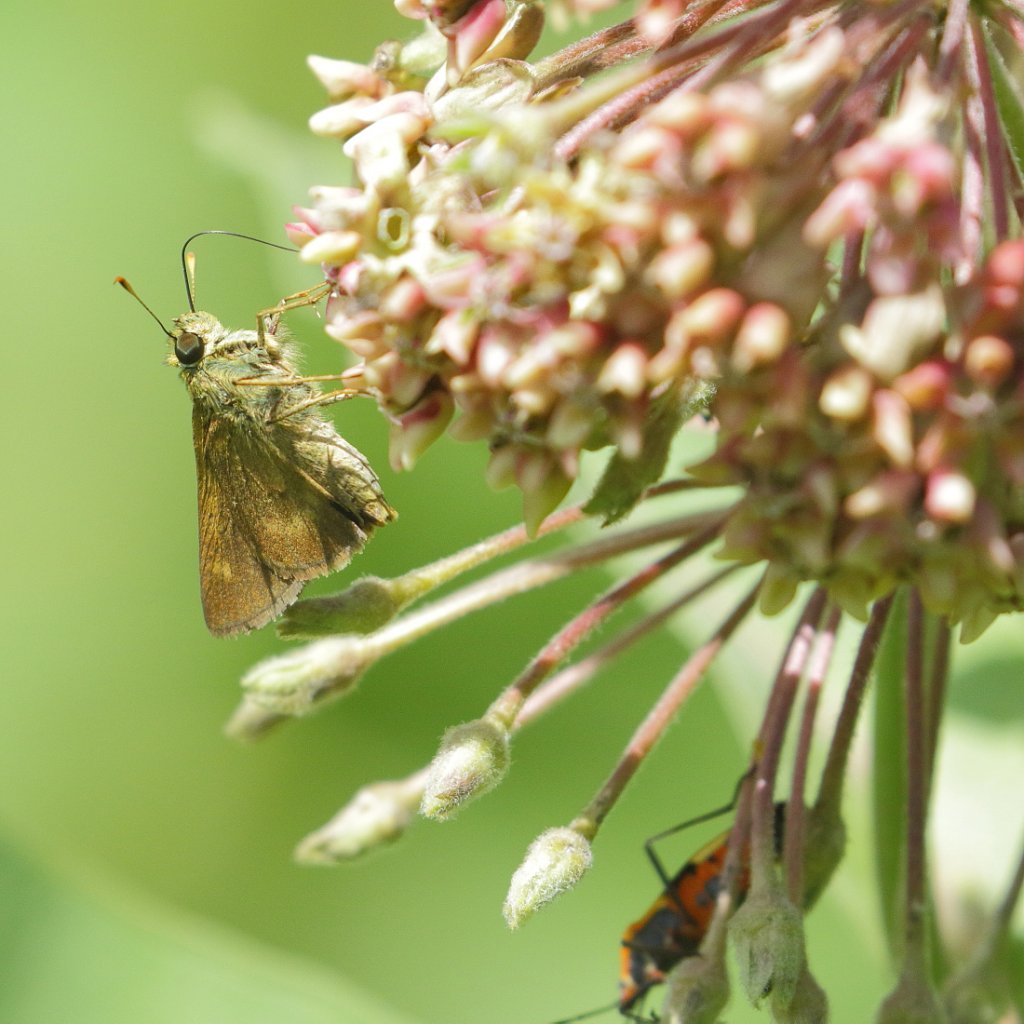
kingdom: Animalia
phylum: Arthropoda
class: Insecta
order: Lepidoptera
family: Hesperiidae
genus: Polites
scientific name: Polites egeremet
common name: Northern Broken-Dash
